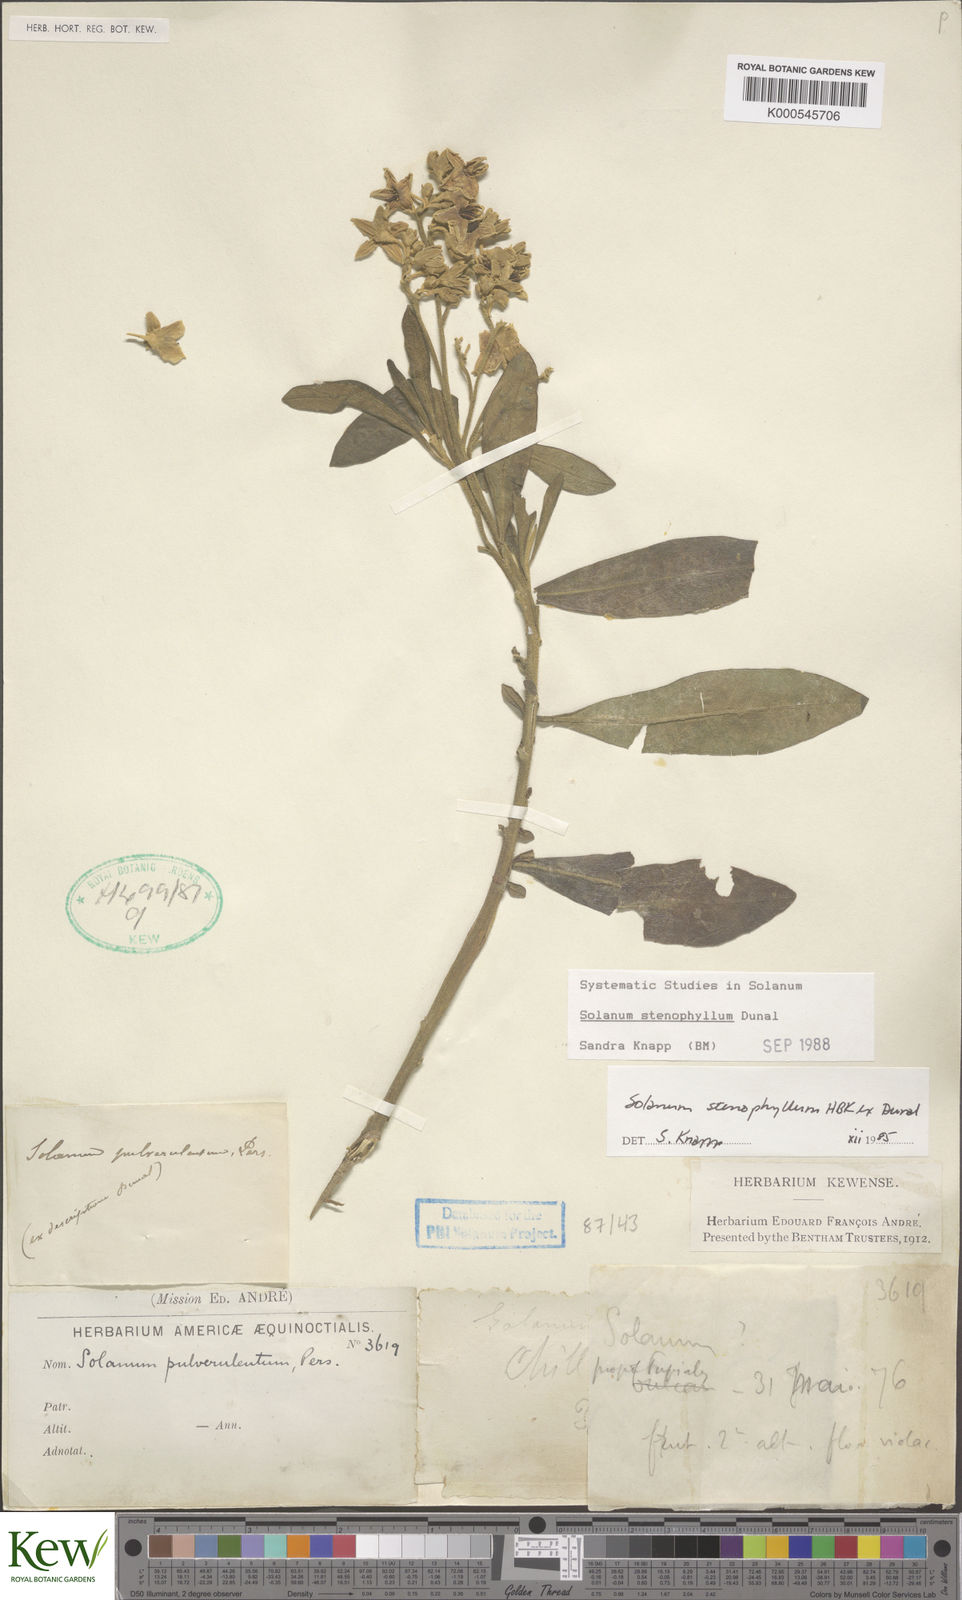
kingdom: Plantae
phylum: Tracheophyta
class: Magnoliopsida
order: Solanales
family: Solanaceae
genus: Solanum
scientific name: Solanum stenophyllum
